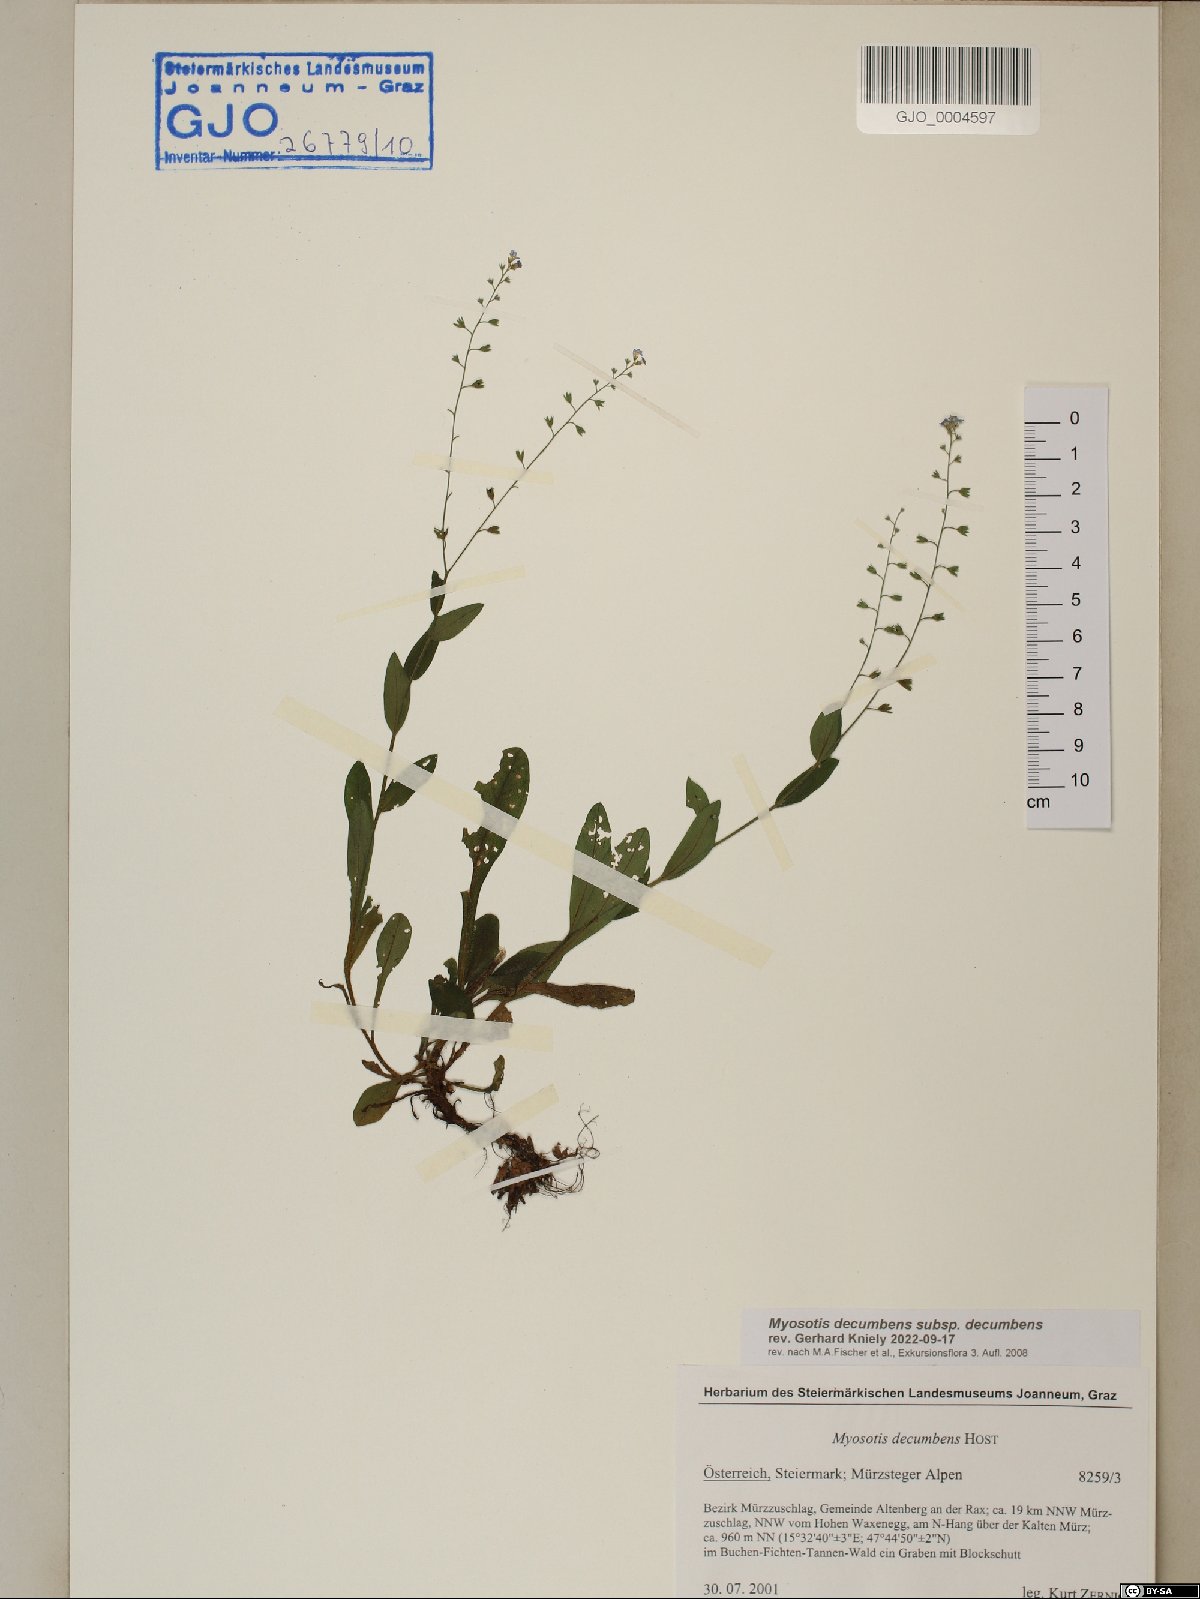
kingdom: Plantae
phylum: Tracheophyta
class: Magnoliopsida
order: Boraginales
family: Boraginaceae
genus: Myosotis
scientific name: Myosotis decumbens
